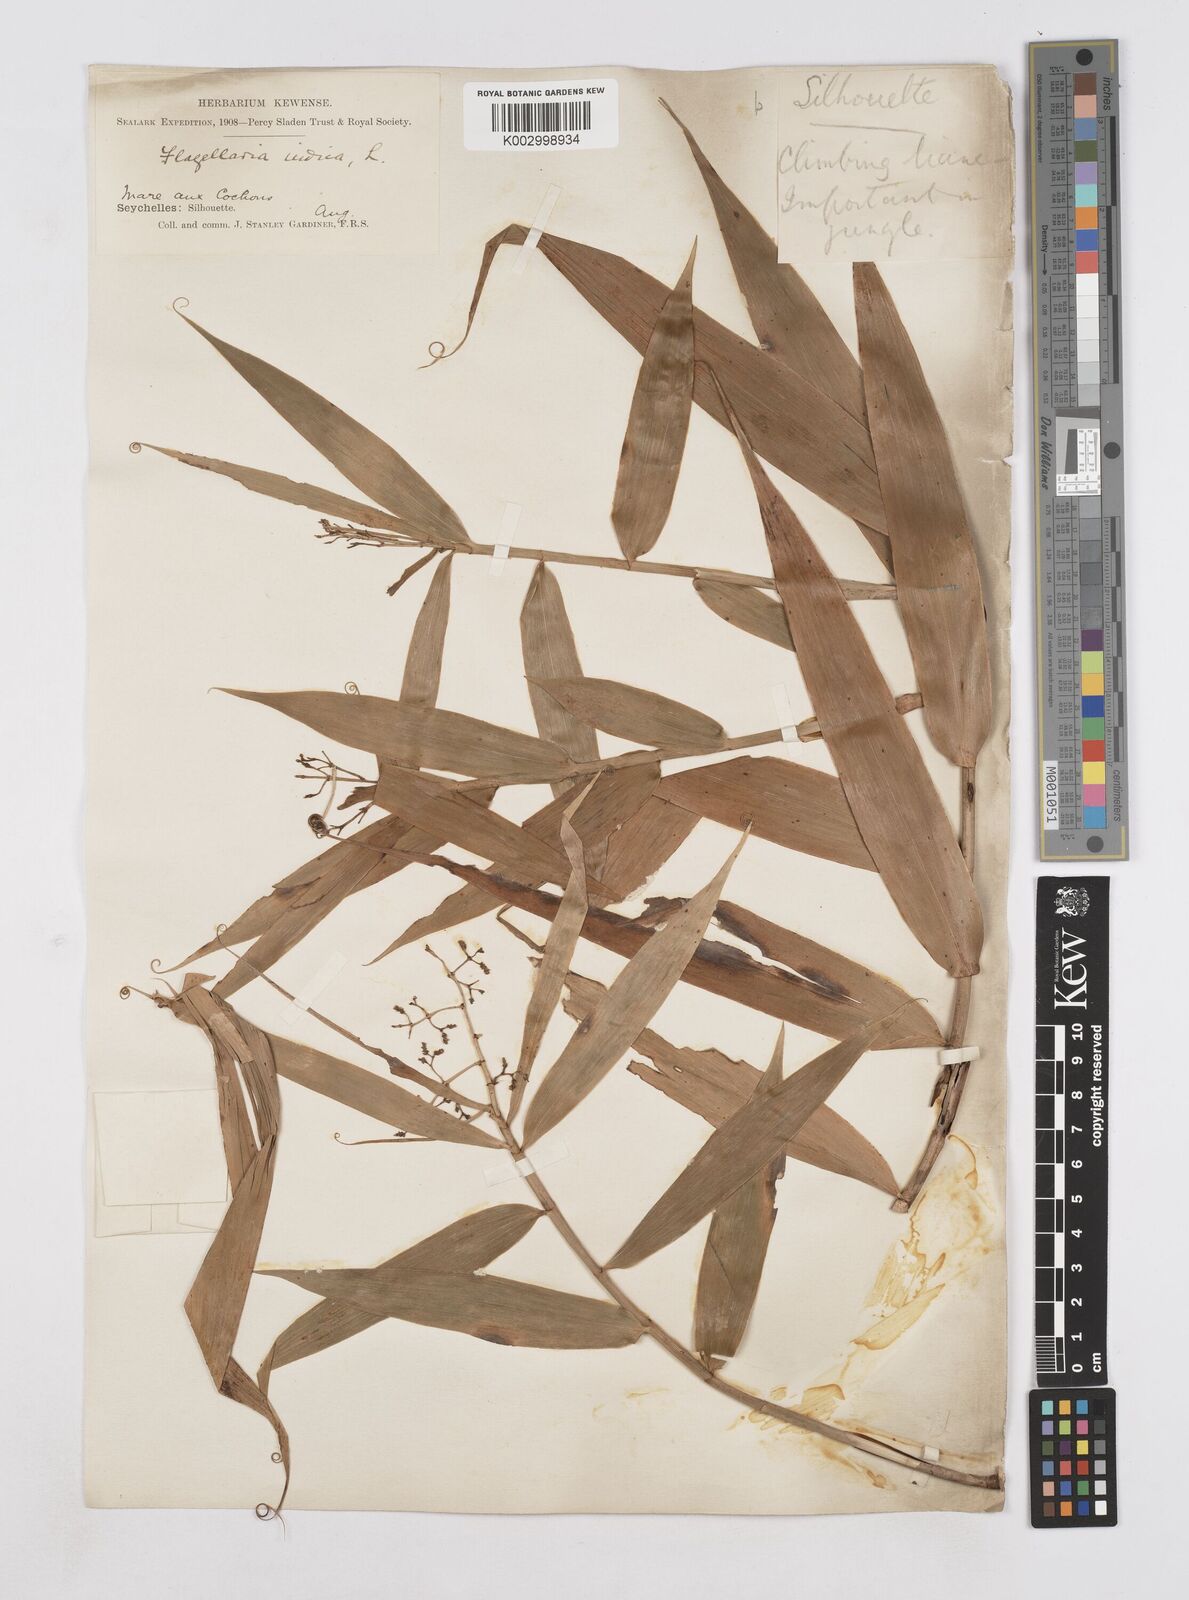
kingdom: Plantae
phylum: Tracheophyta
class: Liliopsida
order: Poales
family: Flagellariaceae
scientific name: Flagellariaceae
